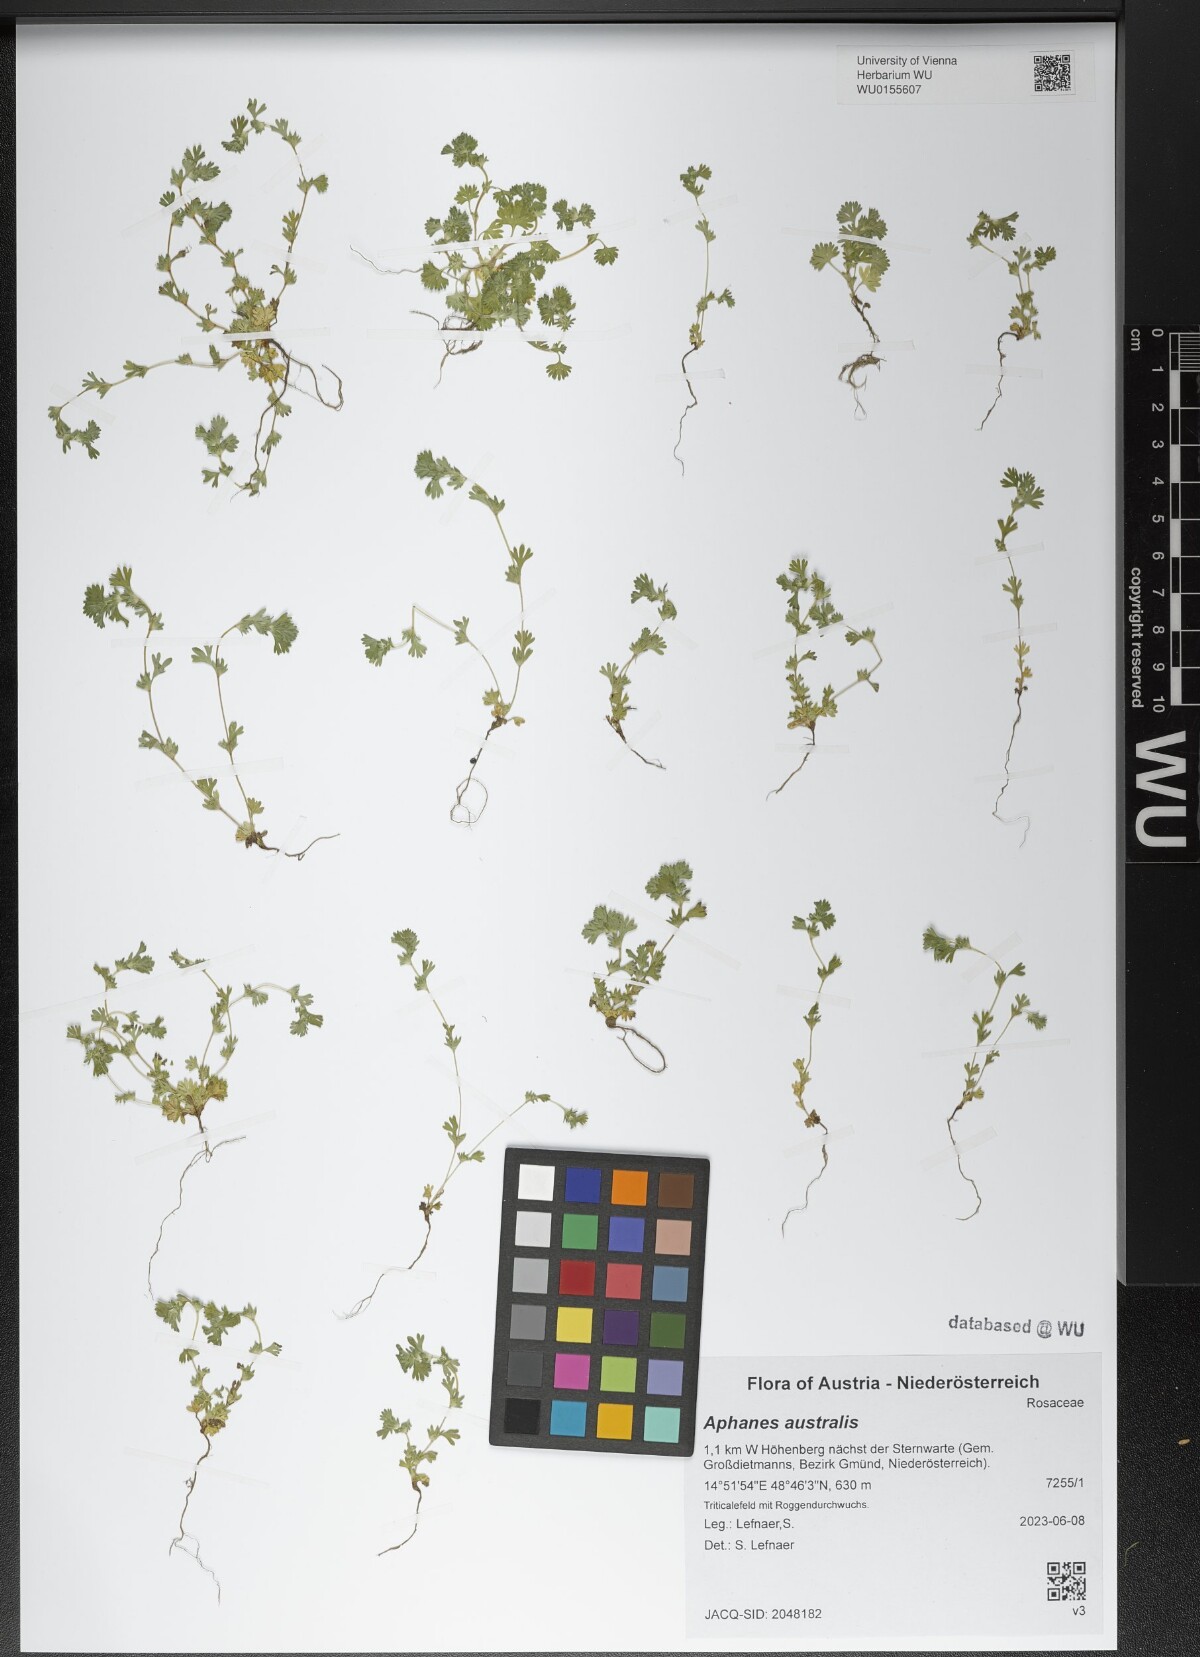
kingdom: Plantae
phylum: Tracheophyta
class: Magnoliopsida
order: Rosales
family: Rosaceae
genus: Aphanes
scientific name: Aphanes australis
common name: Slender parsley-piert
